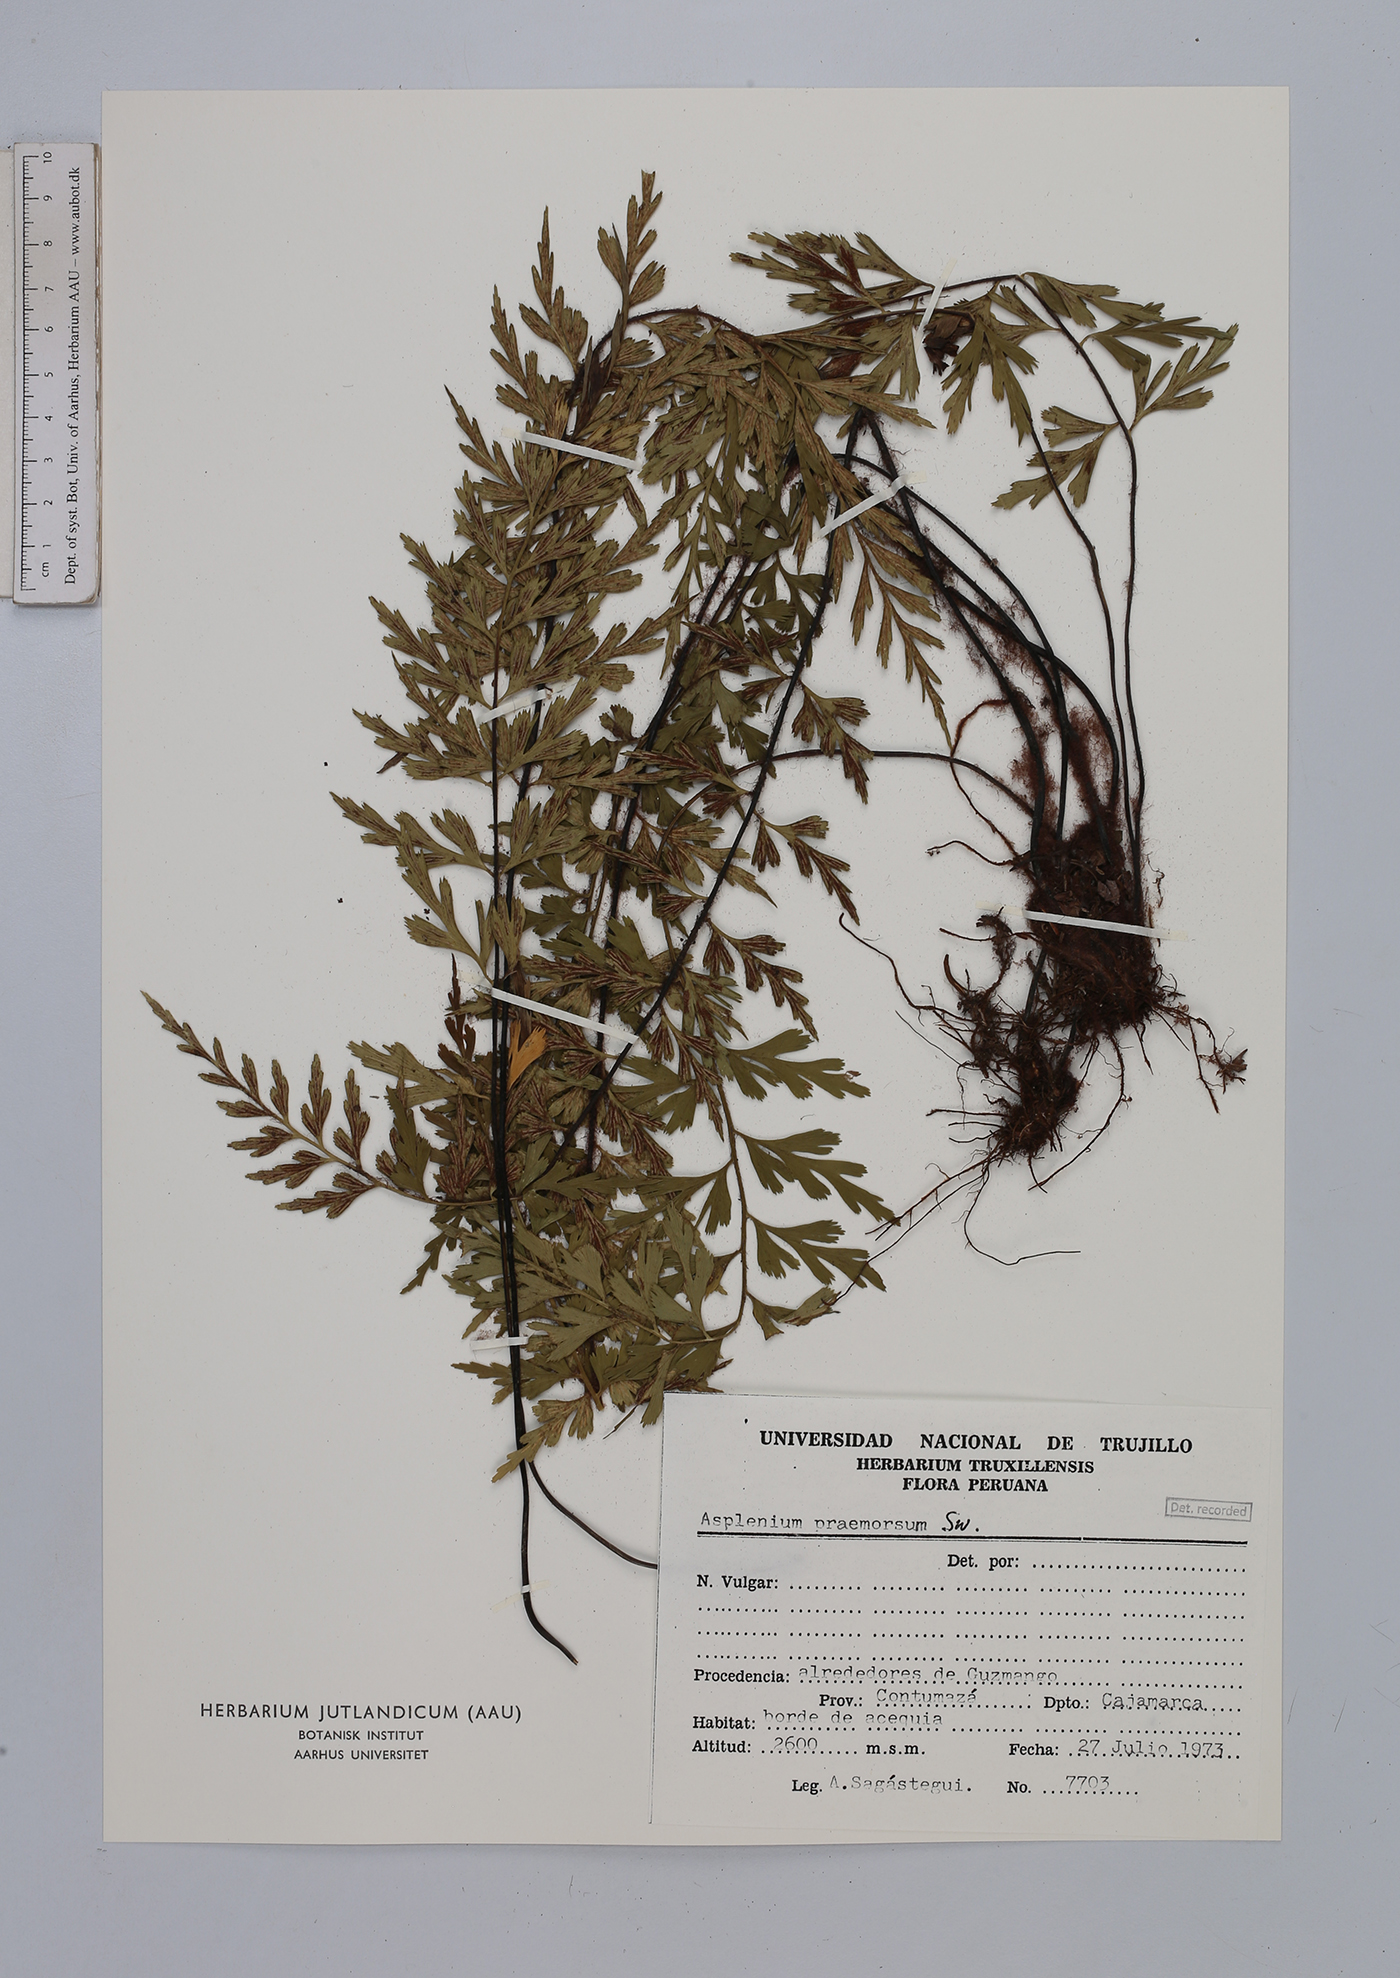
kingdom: Plantae
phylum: Tracheophyta
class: Polypodiopsida
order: Polypodiales
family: Aspleniaceae
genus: Asplenium
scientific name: Asplenium praemorsum
